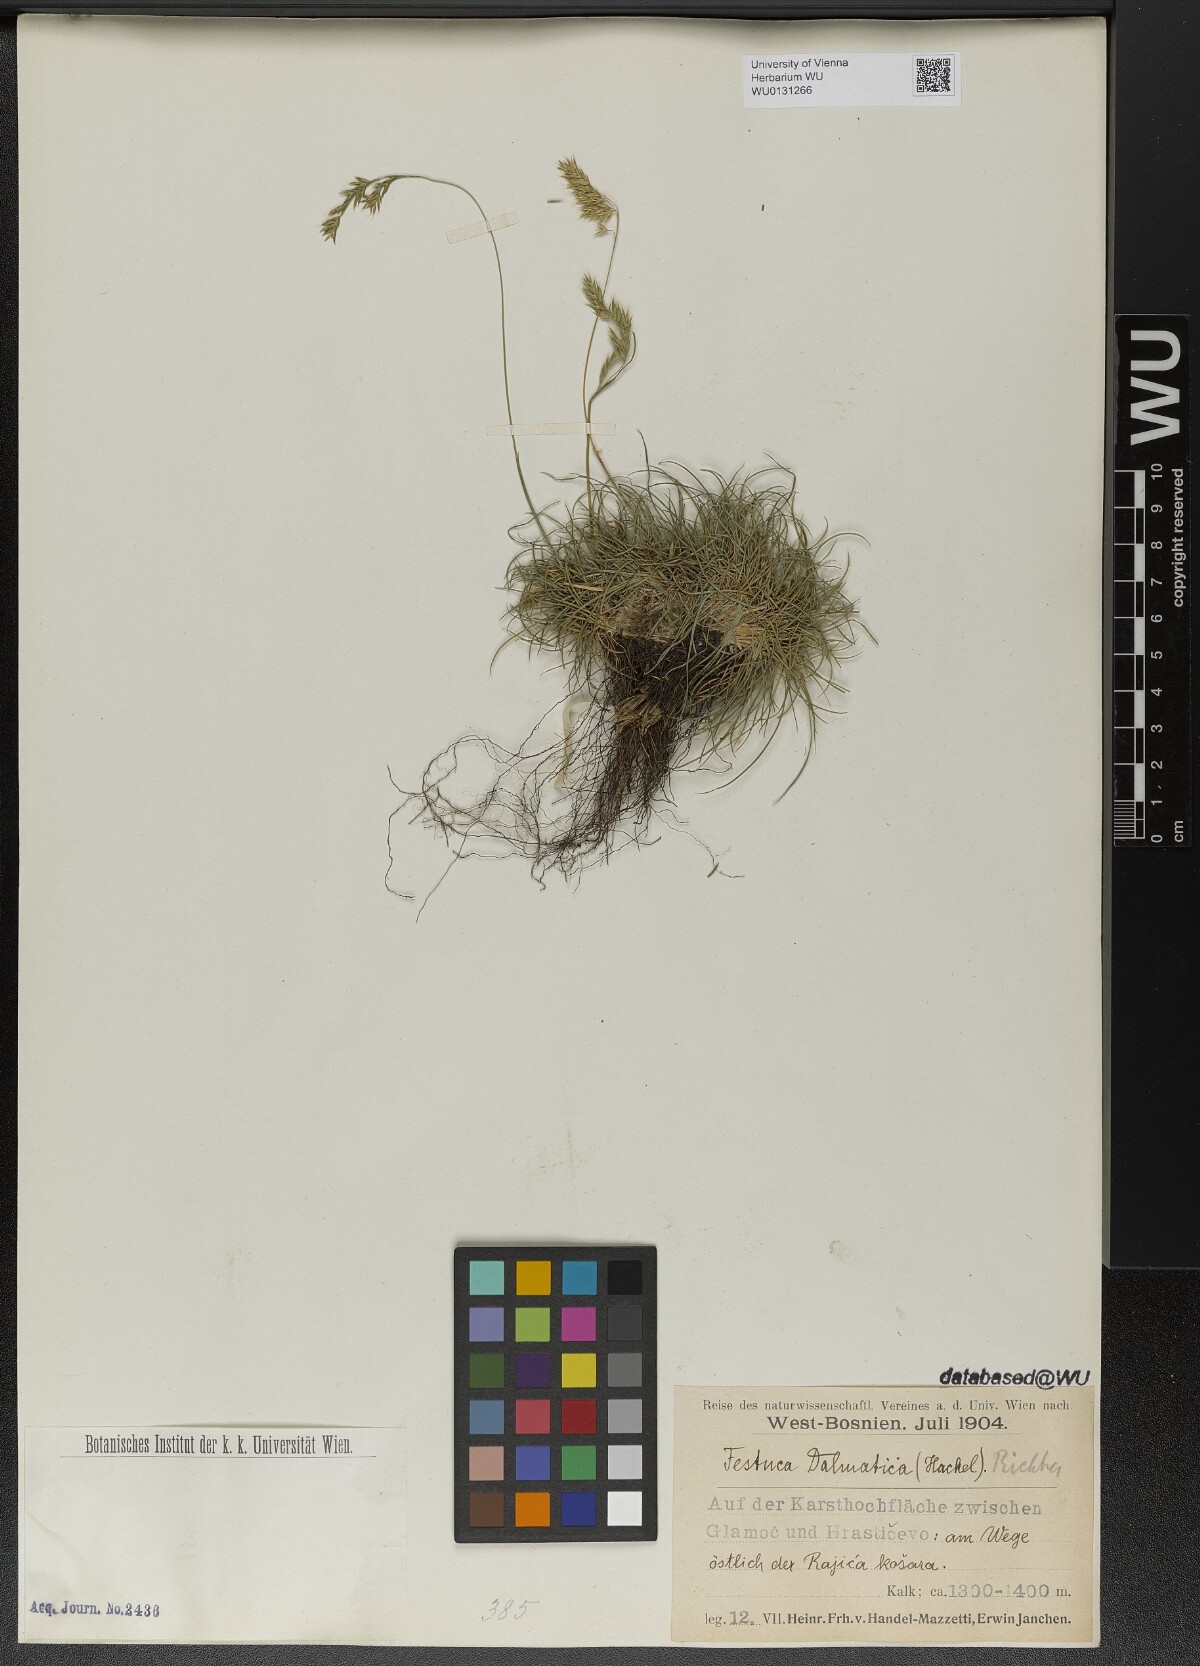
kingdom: Plantae
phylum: Tracheophyta
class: Liliopsida
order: Poales
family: Poaceae
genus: Festuca
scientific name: Festuca dalmatica
